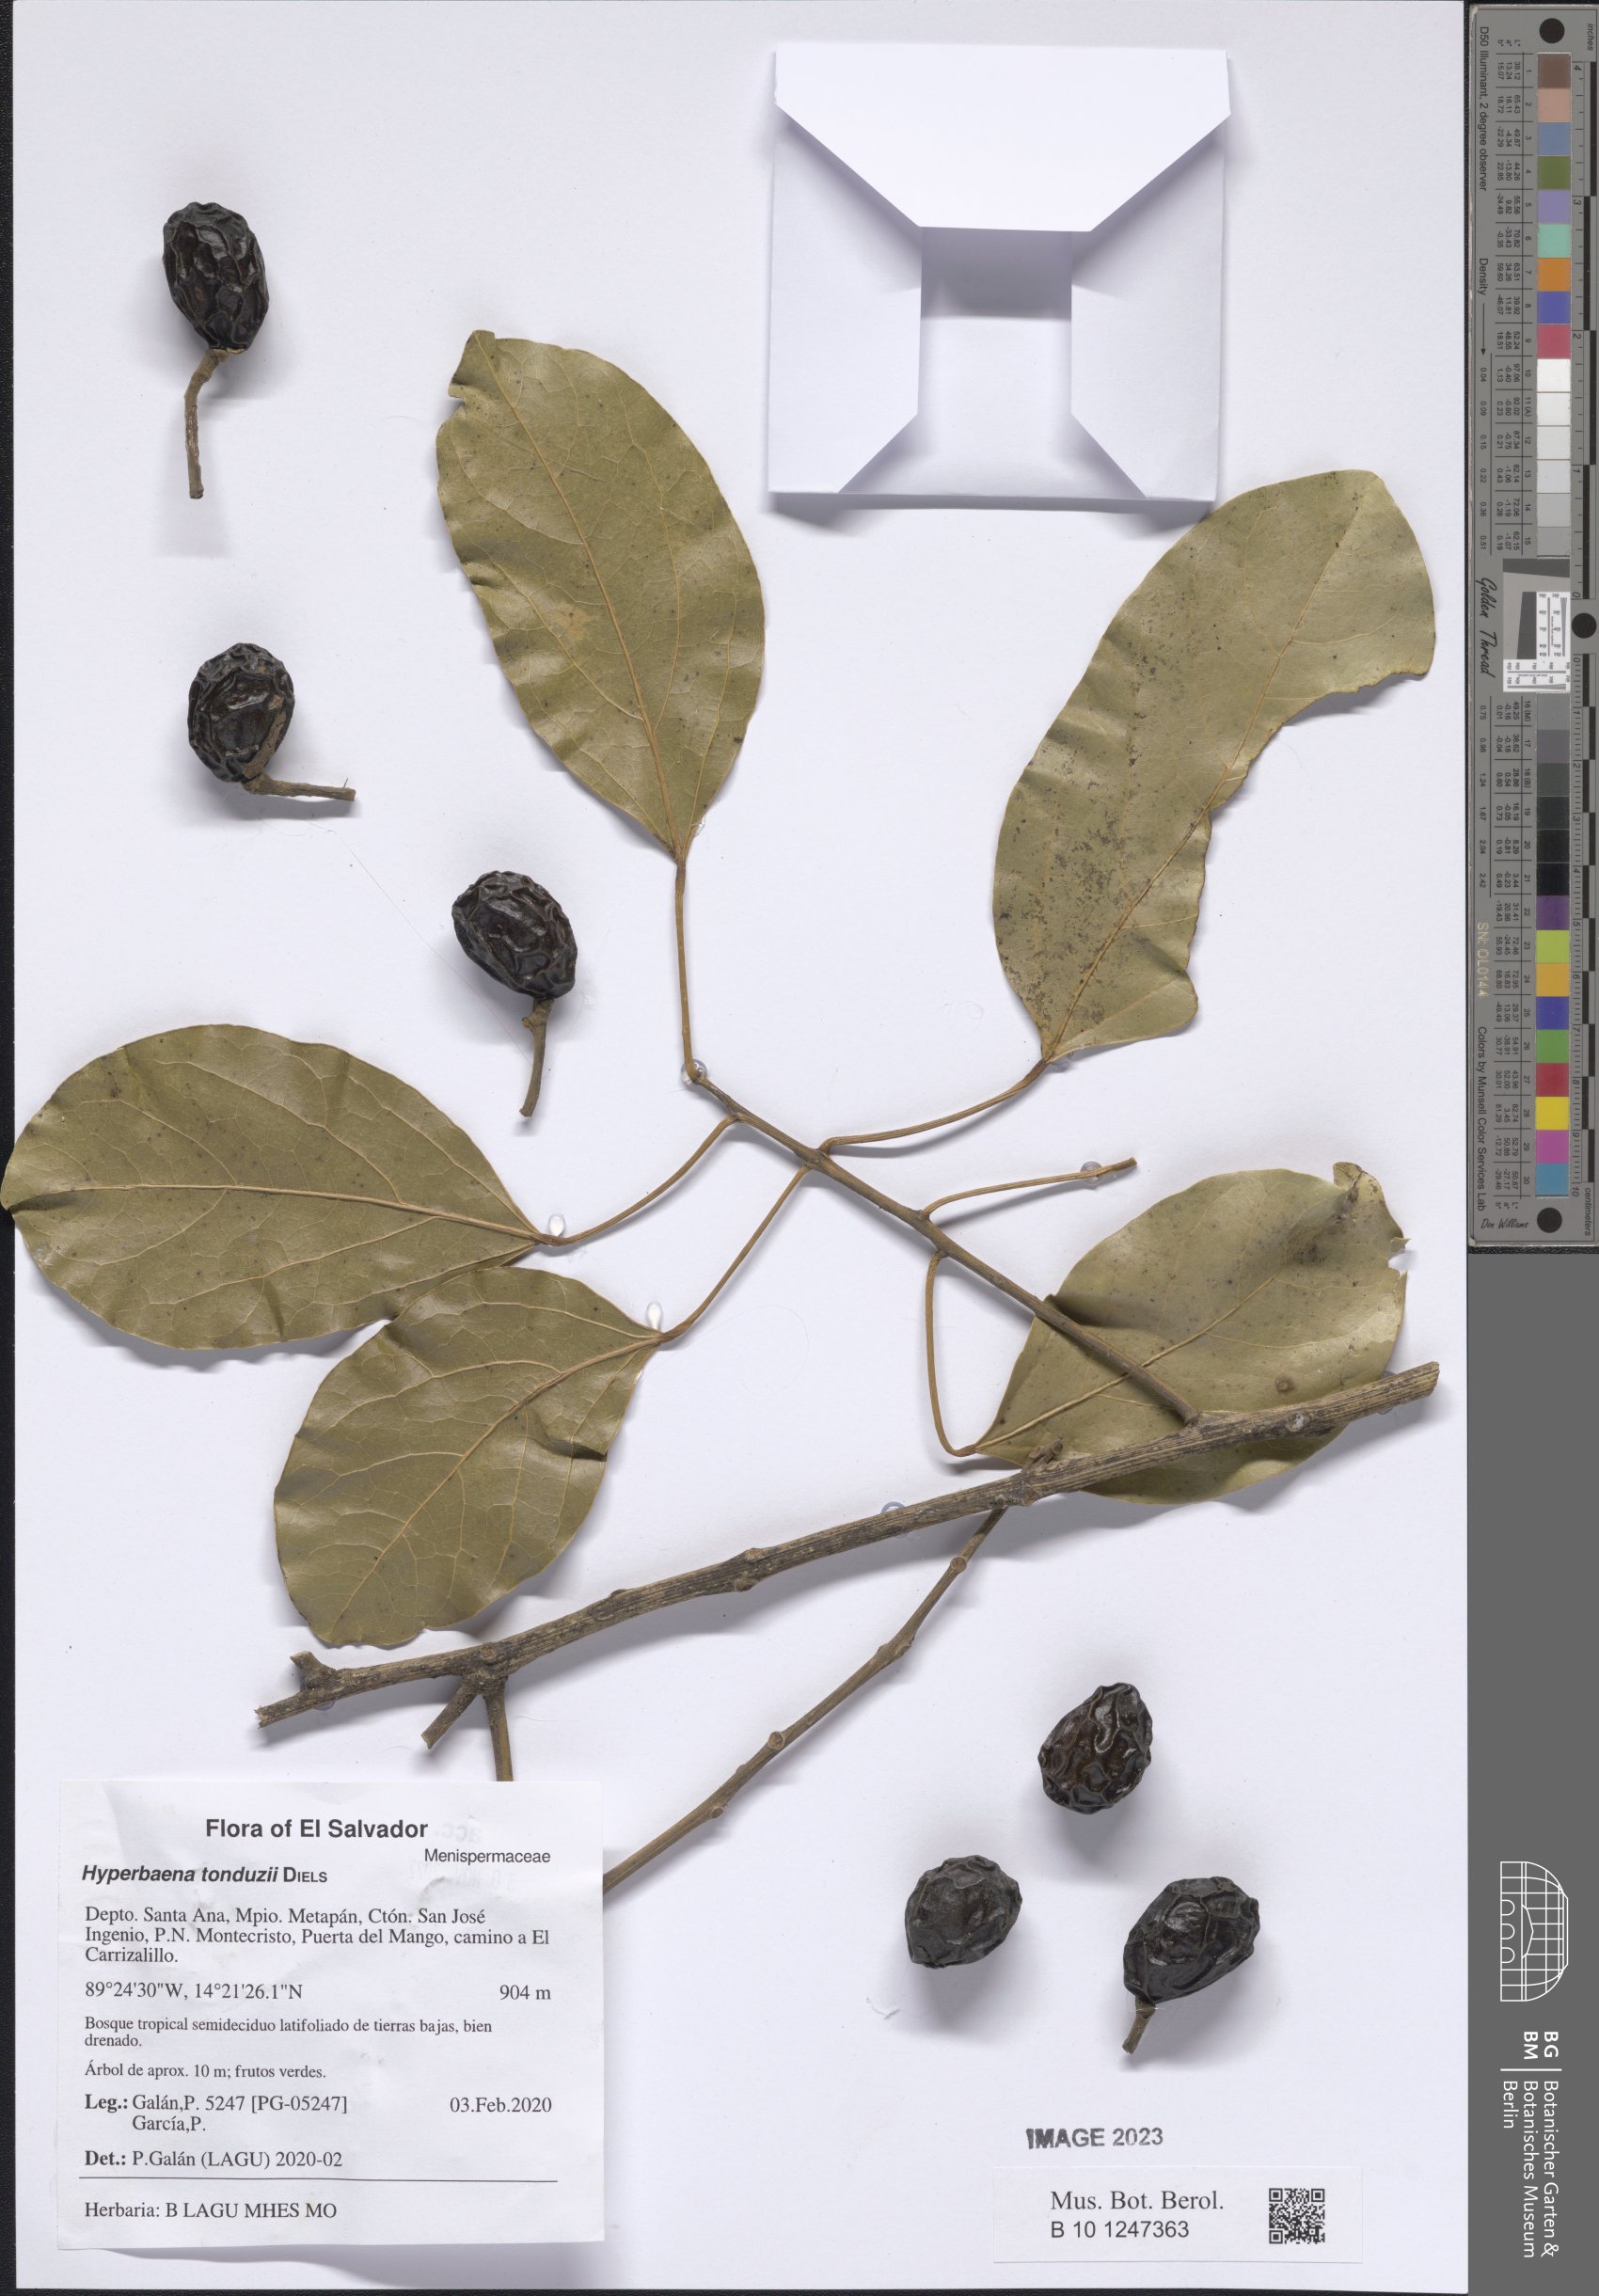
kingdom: Plantae
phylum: Tracheophyta
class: Magnoliopsida
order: Ranunculales
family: Menispermaceae
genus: Hyperbaena
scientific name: Hyperbaena tonduzii
